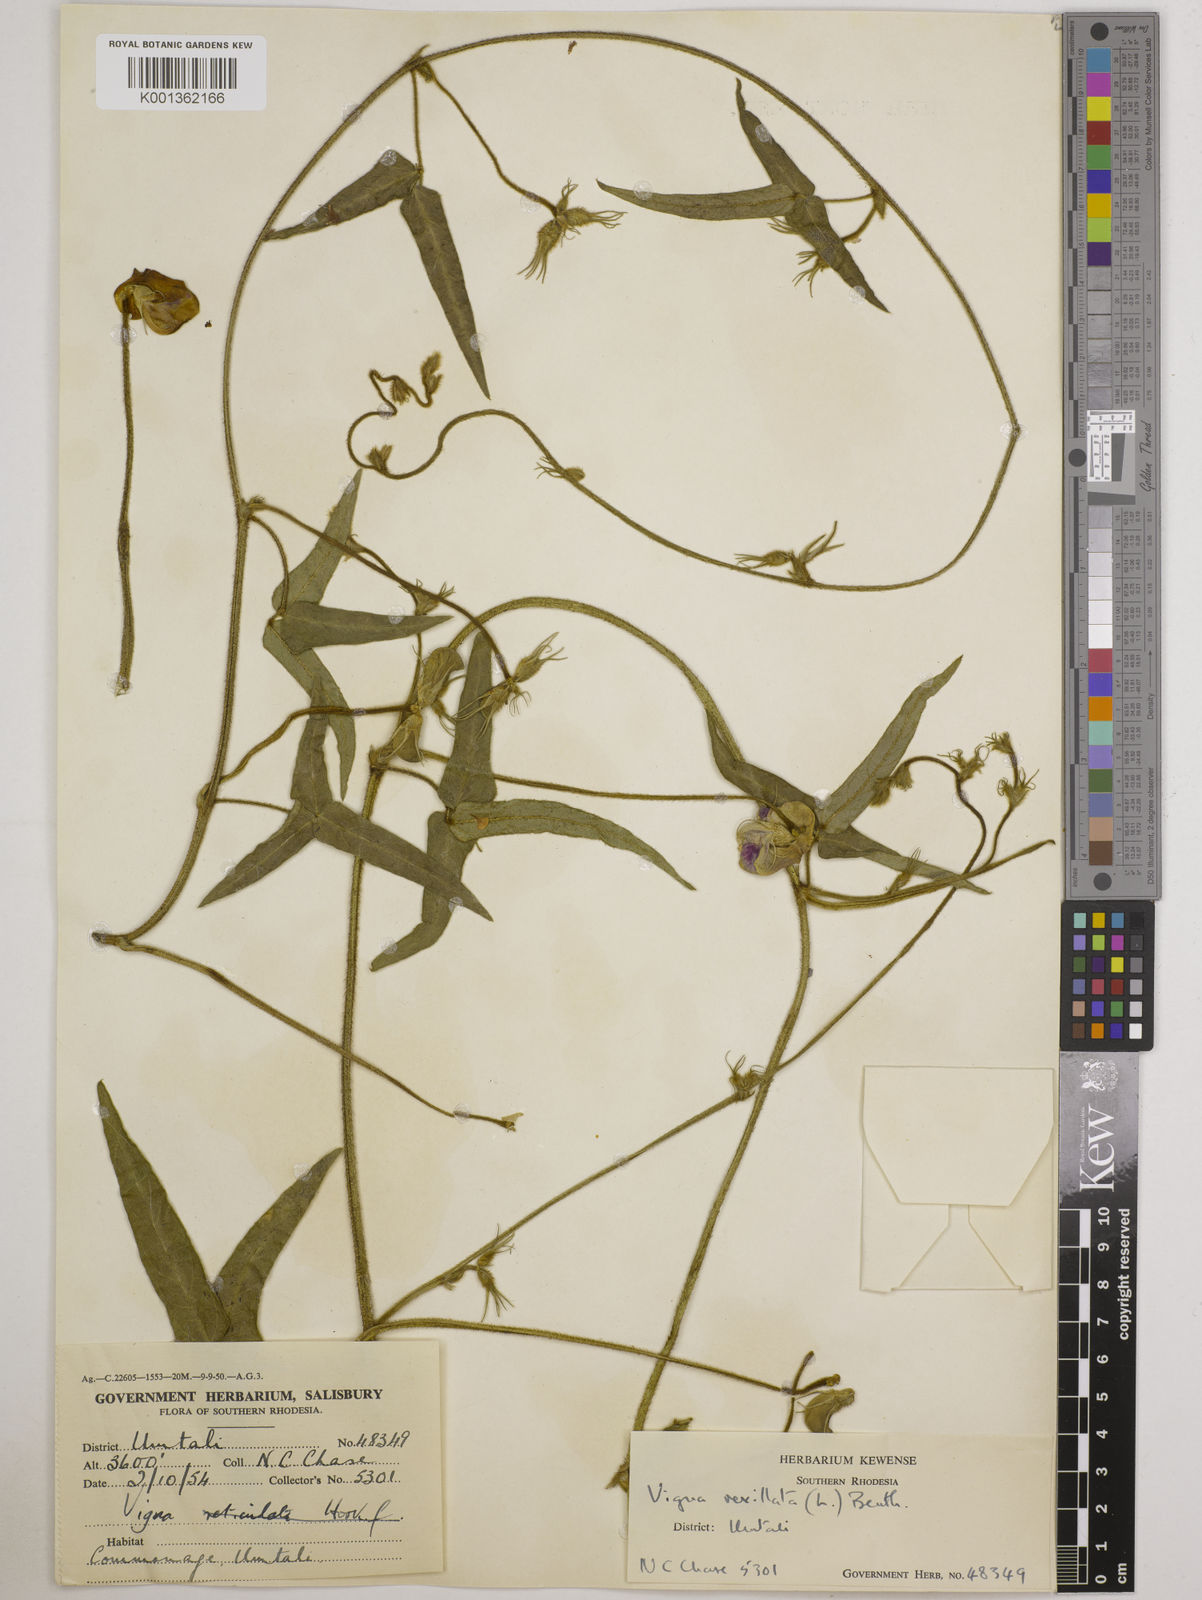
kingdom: Plantae
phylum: Tracheophyta
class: Magnoliopsida
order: Fabales
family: Fabaceae
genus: Vigna
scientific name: Vigna vexillata
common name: Zombi pea
